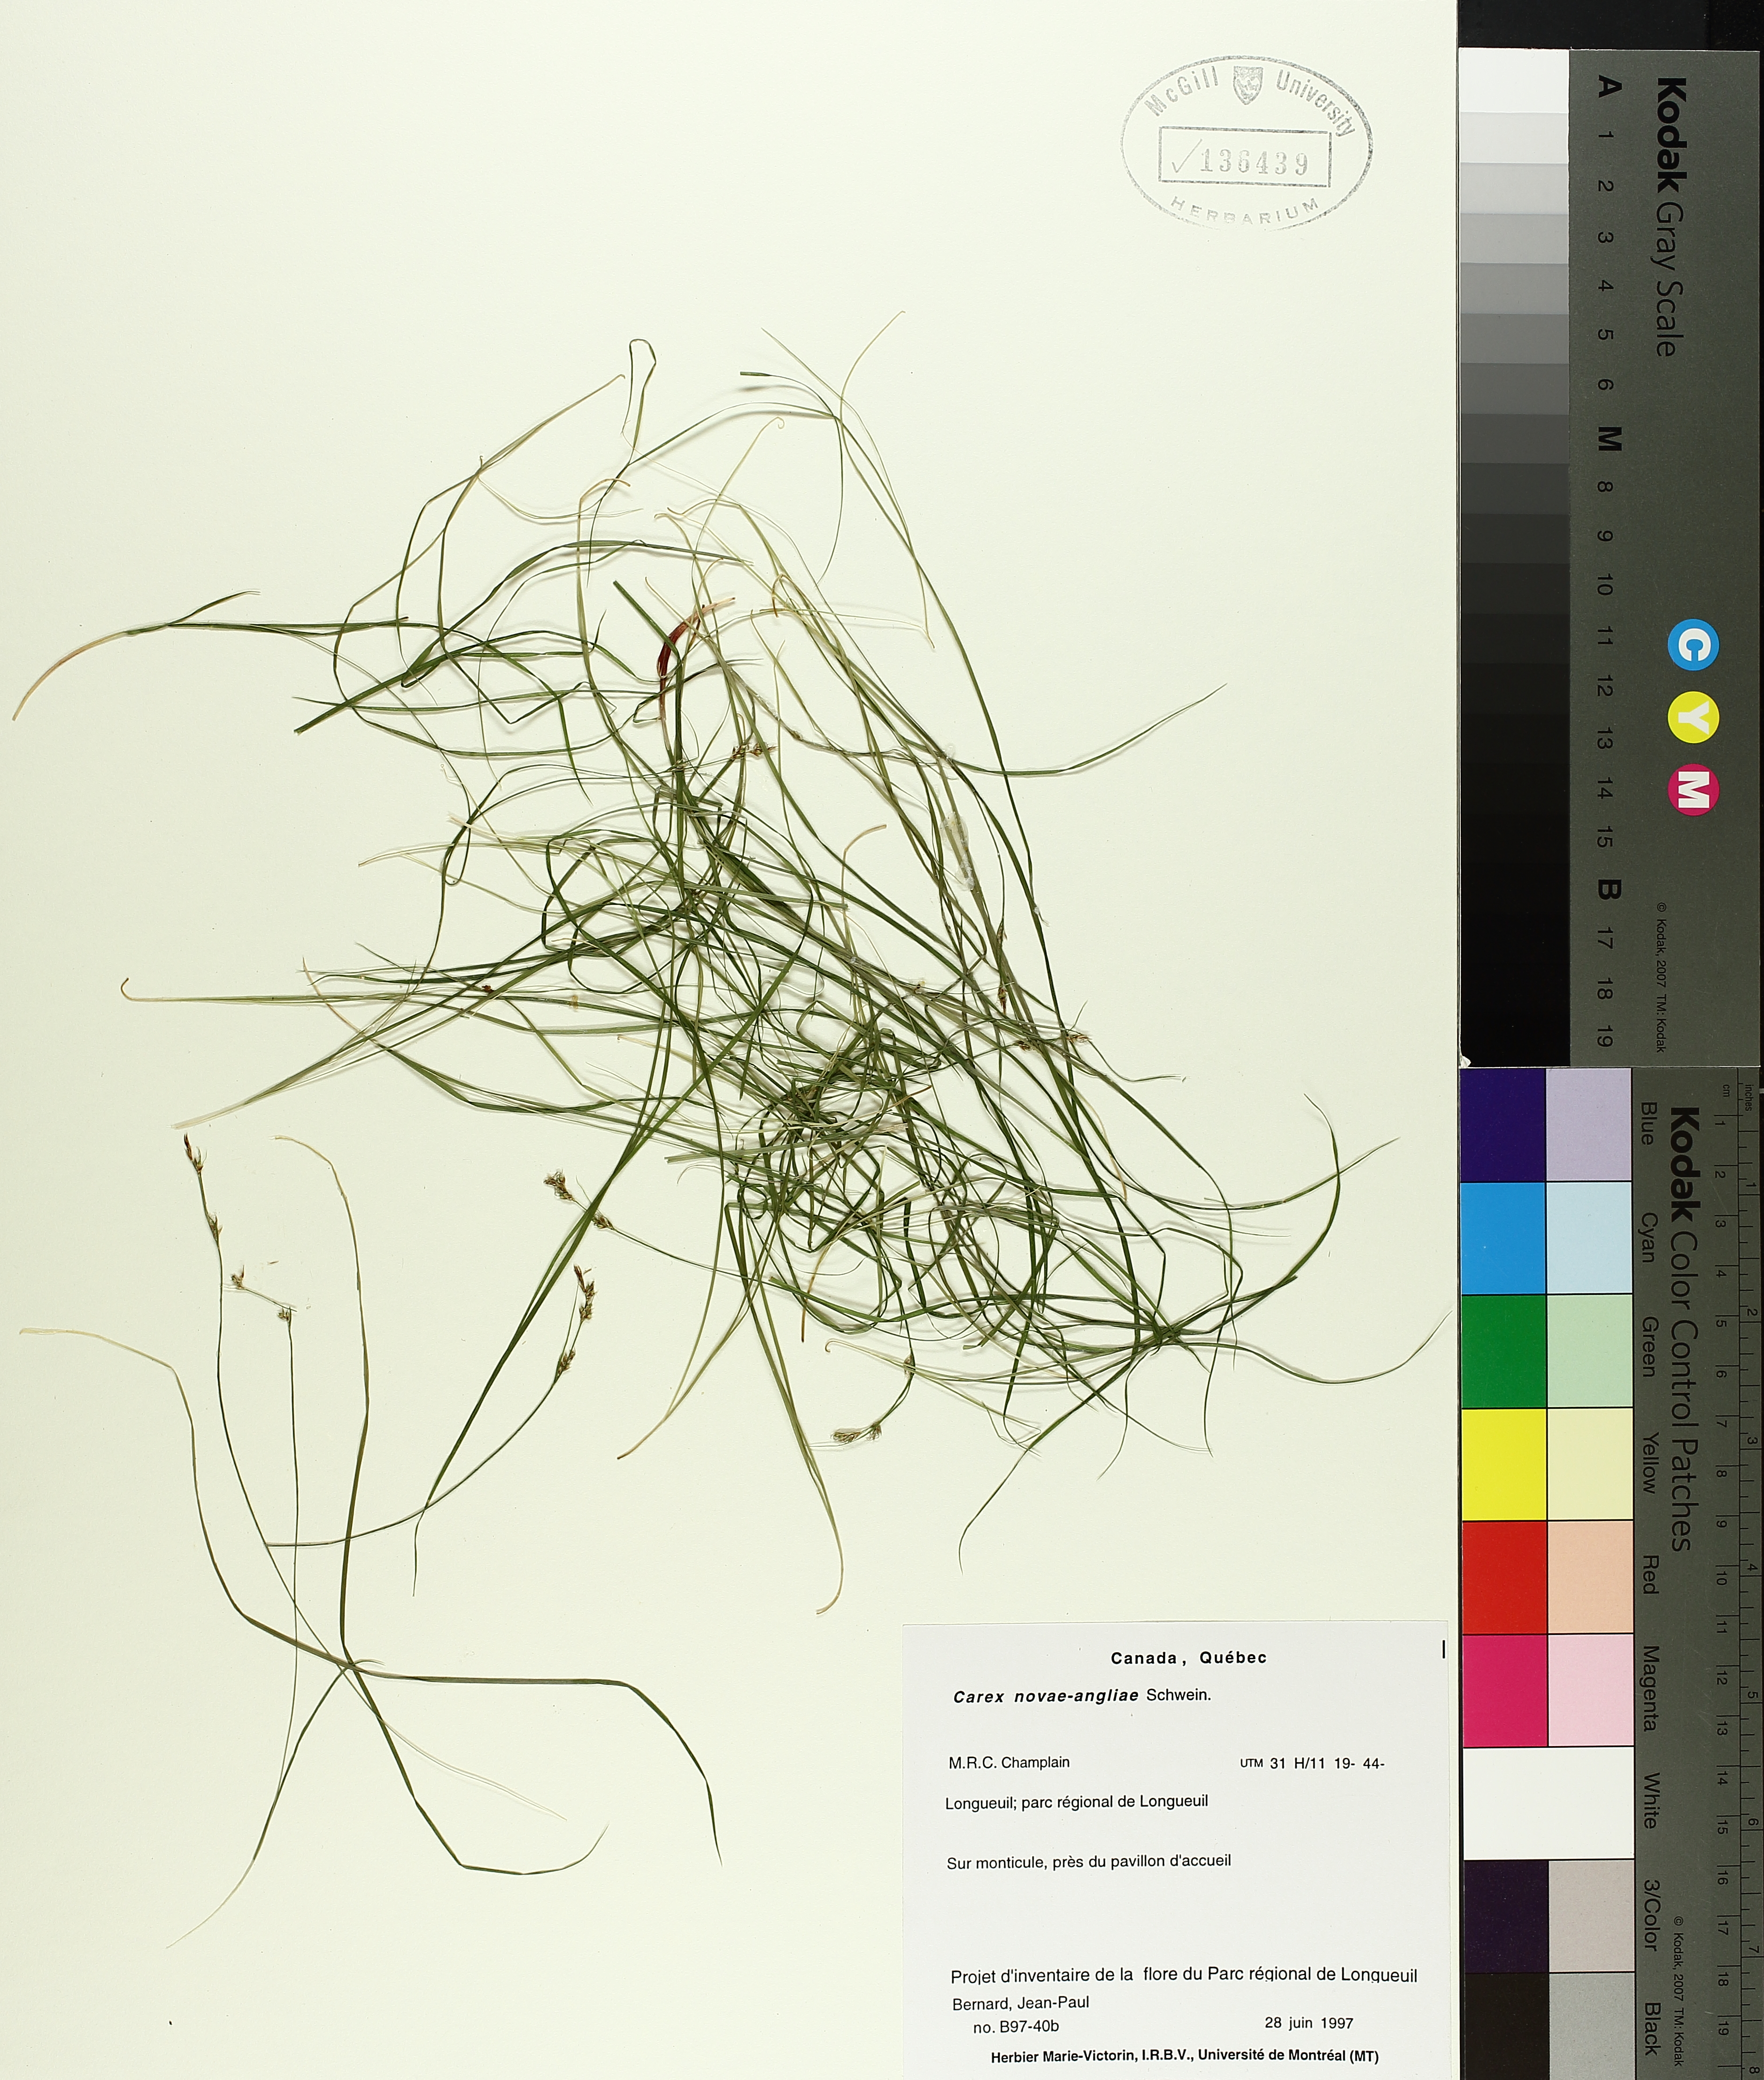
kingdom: Plantae
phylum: Tracheophyta
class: Liliopsida
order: Poales
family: Cyperaceae
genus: Carex
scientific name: Carex novae-angliae
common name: New england sedge
